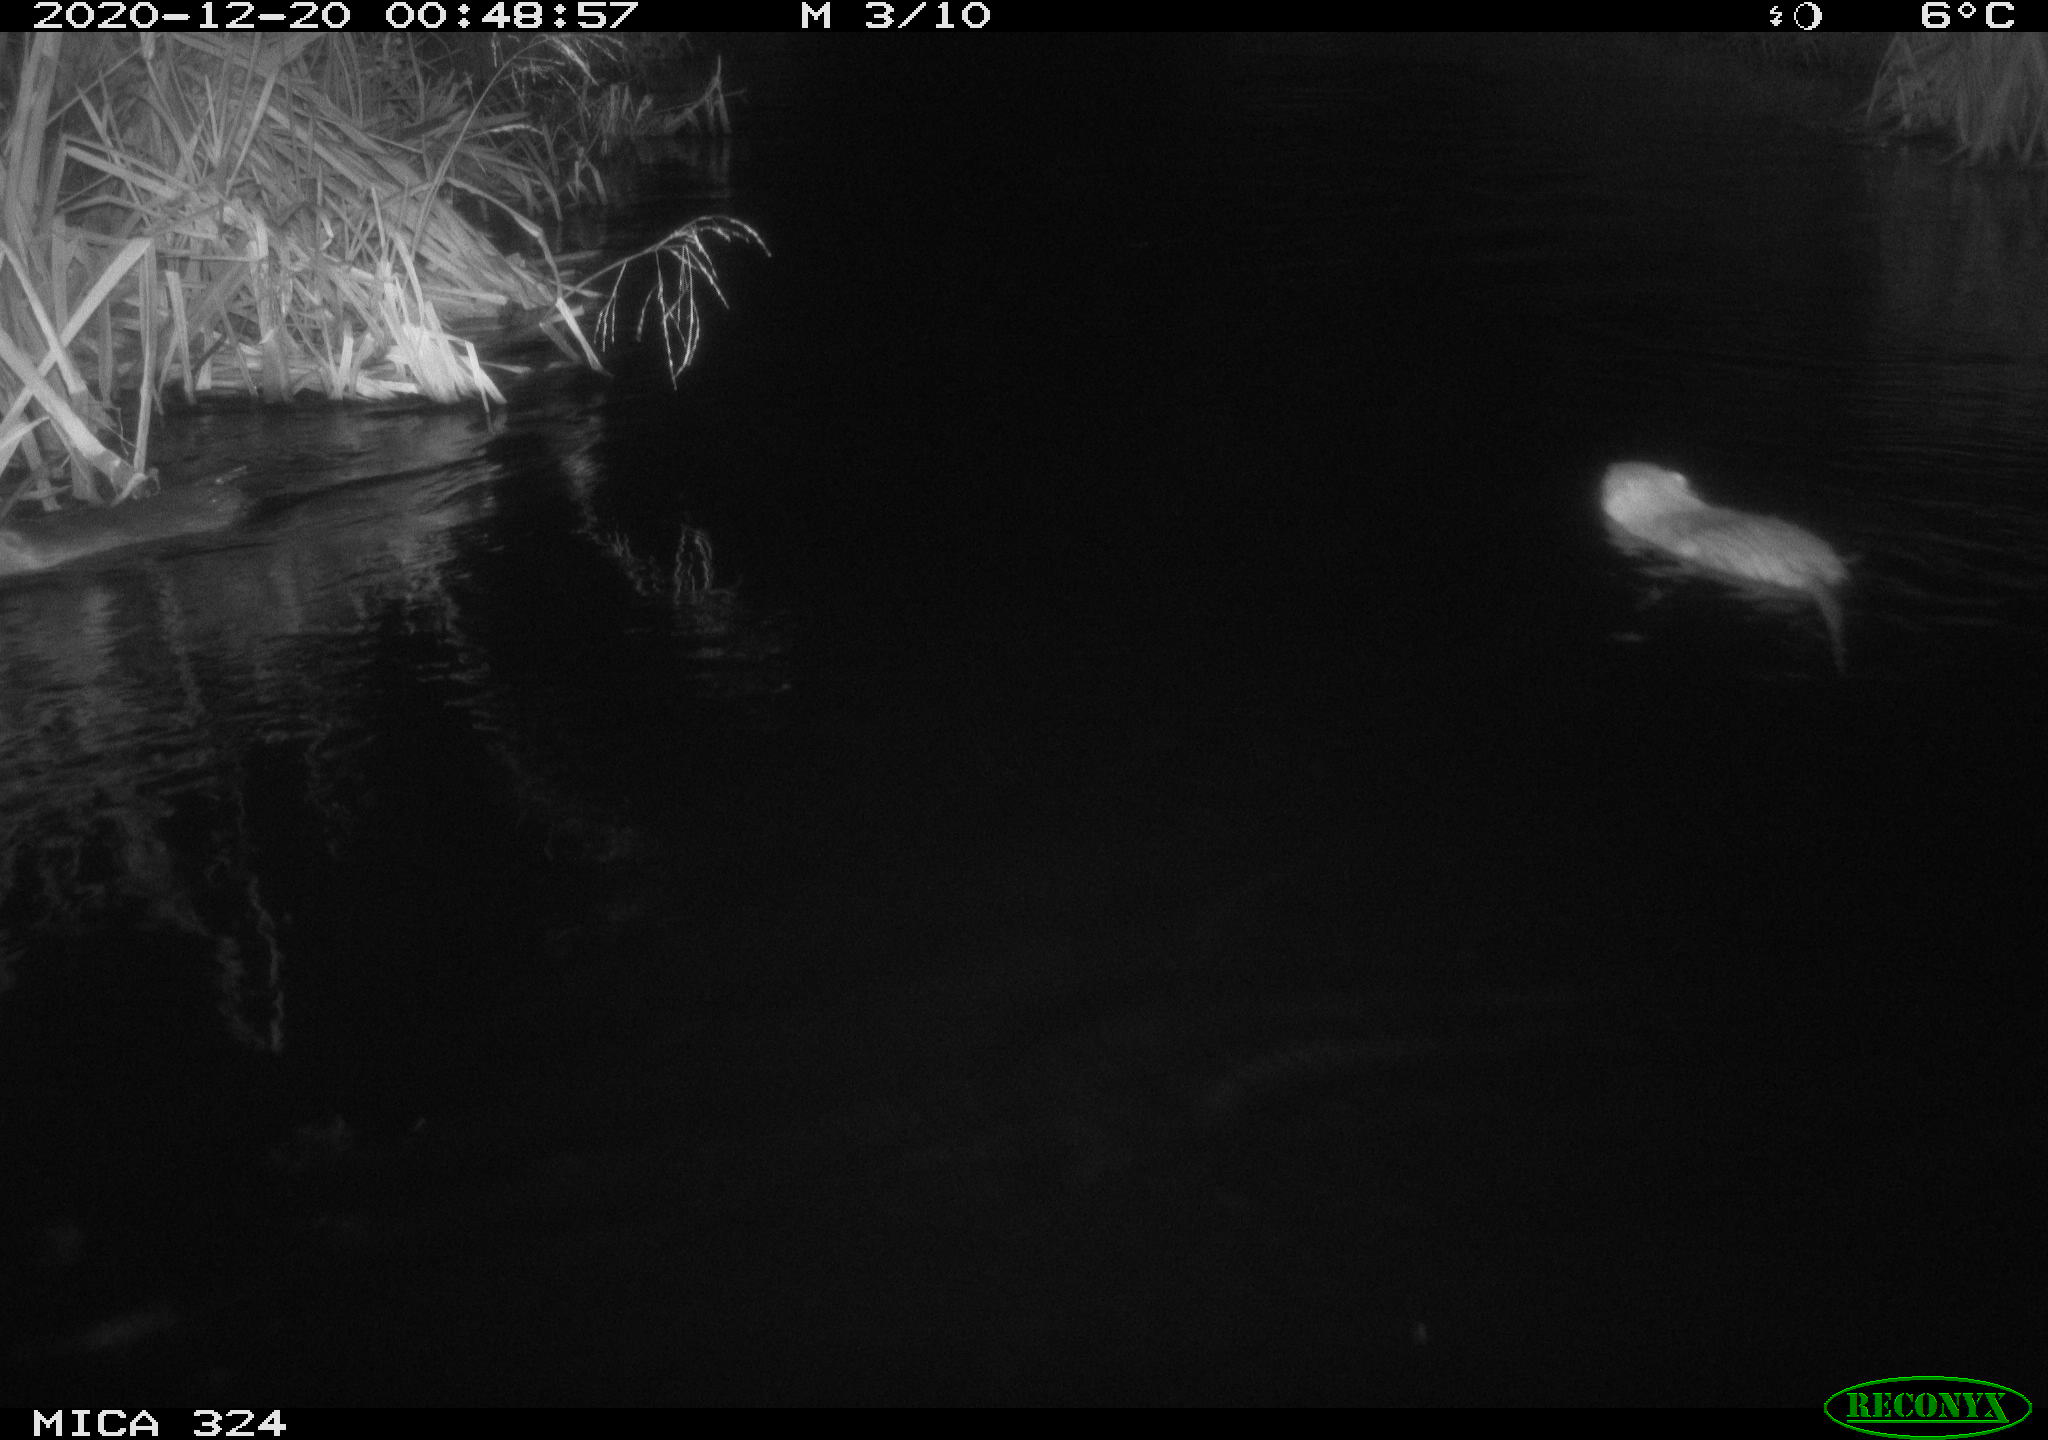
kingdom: Animalia
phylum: Chordata
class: Mammalia
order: Rodentia
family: Myocastoridae
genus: Myocastor
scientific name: Myocastor coypus
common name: Coypu
